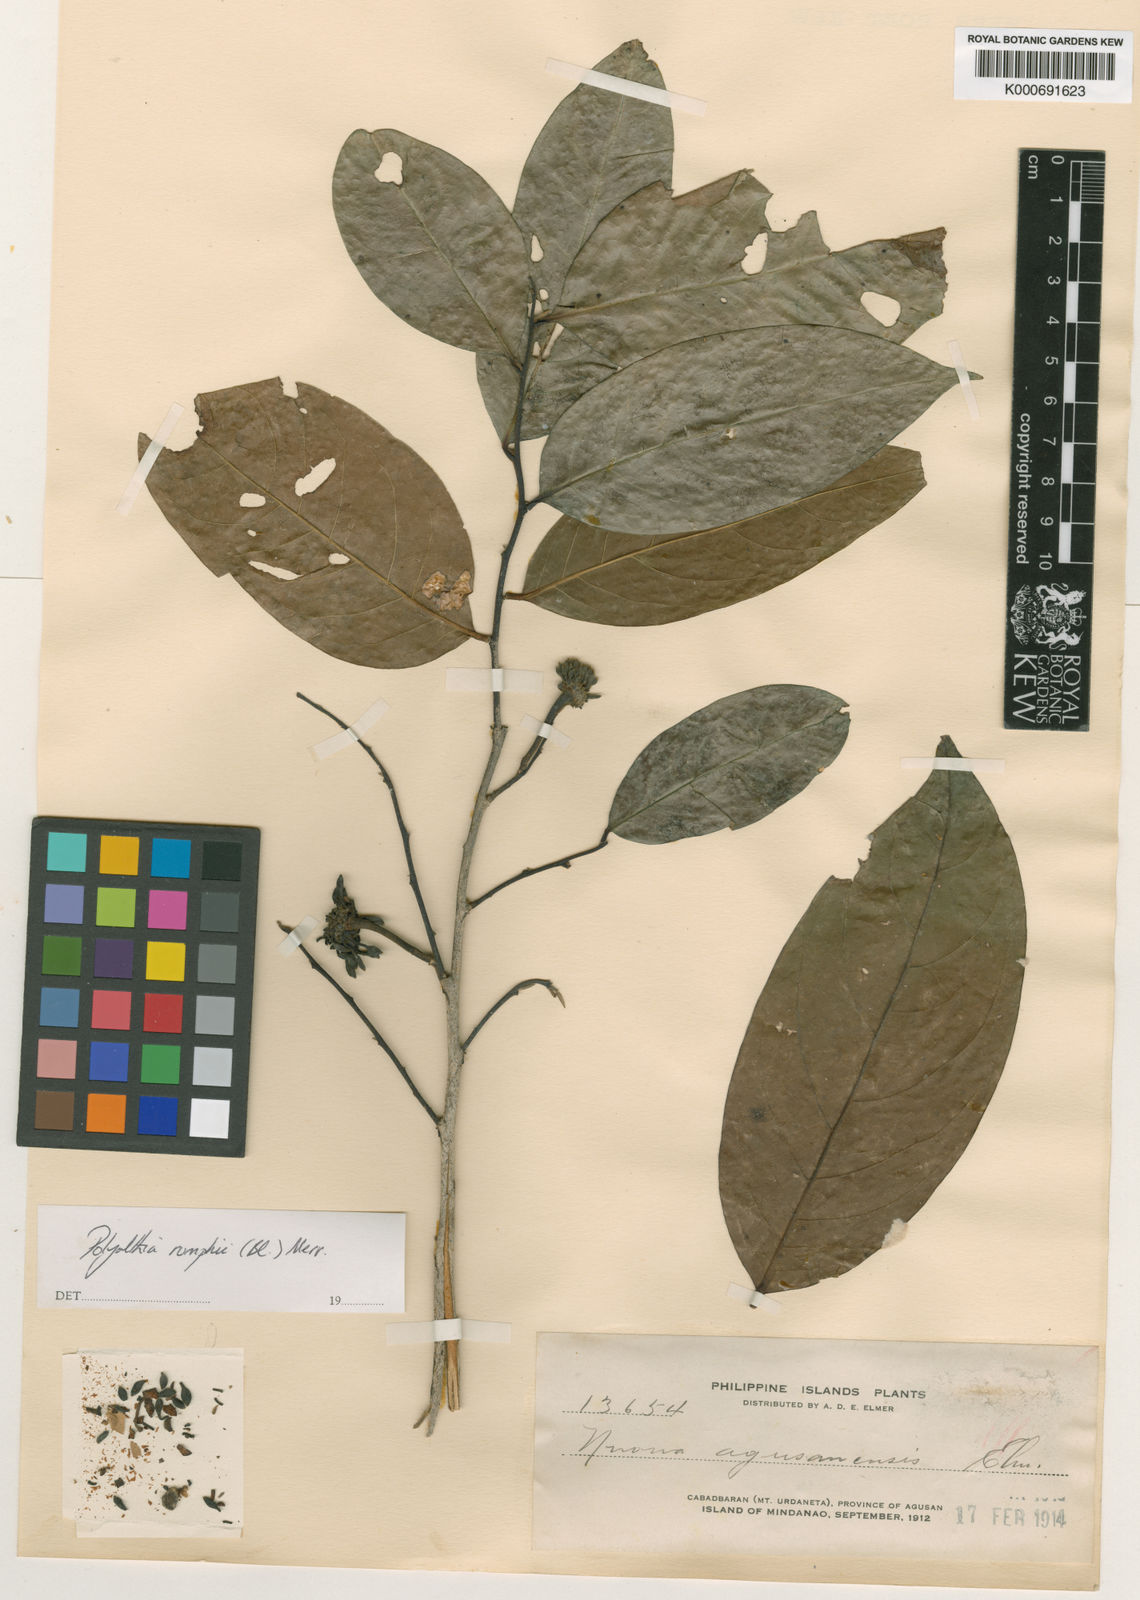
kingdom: Plantae
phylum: Tracheophyta
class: Magnoliopsida
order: Magnoliales
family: Annonaceae
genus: Hubera
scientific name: Hubera rumphii
